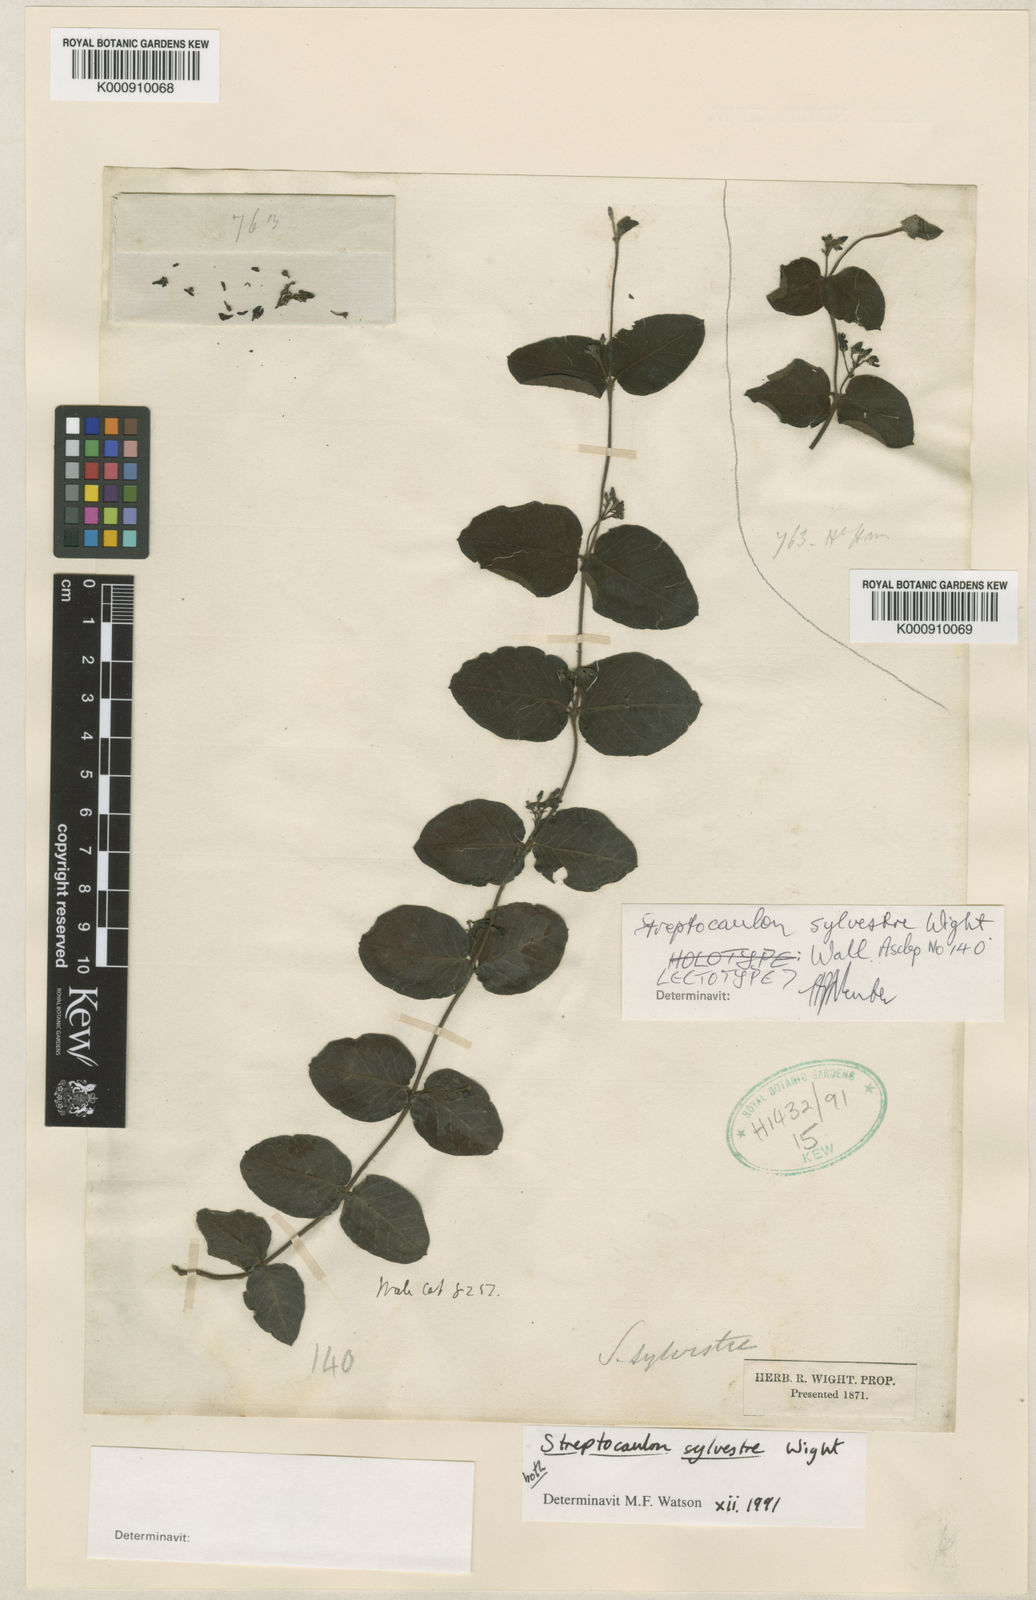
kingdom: Plantae
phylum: Tracheophyta
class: Magnoliopsida
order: Gentianales
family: Apocynaceae
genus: Streptocaulon
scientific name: Streptocaulon sylvestre
